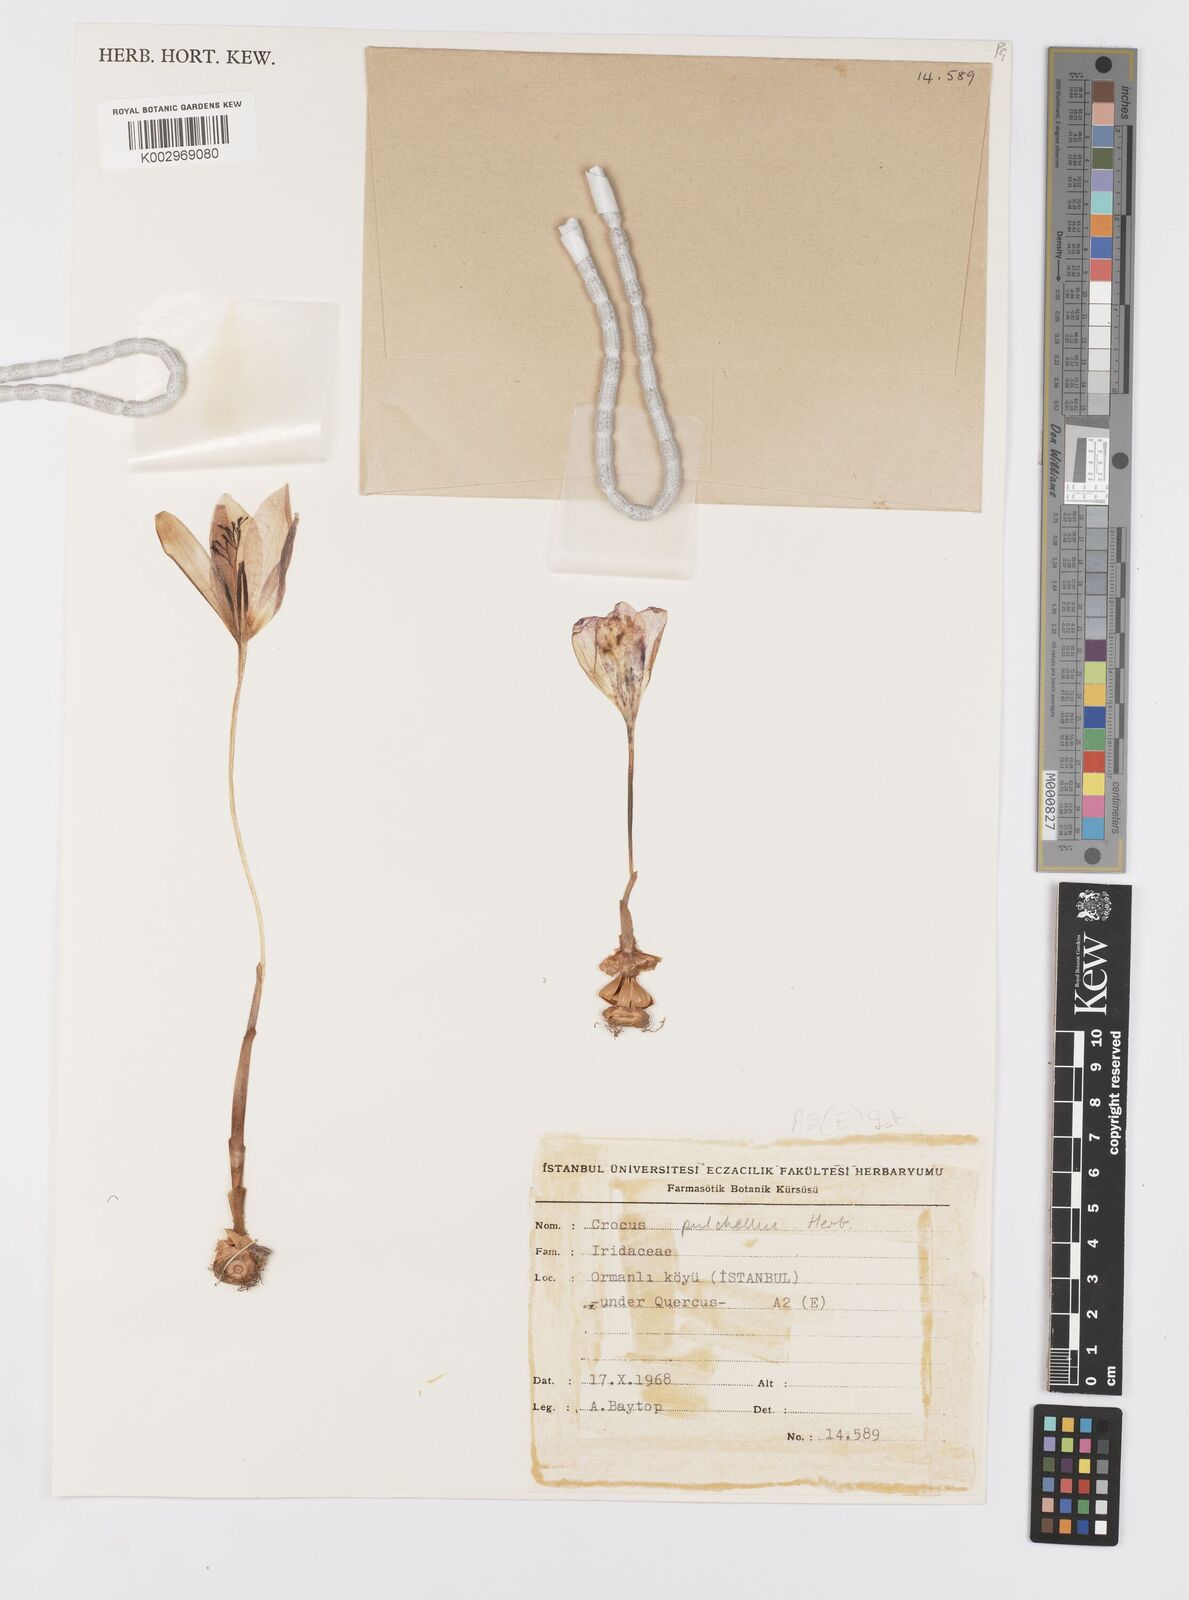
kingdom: Plantae
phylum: Tracheophyta
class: Liliopsida
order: Asparagales
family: Iridaceae
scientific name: Iridaceae
